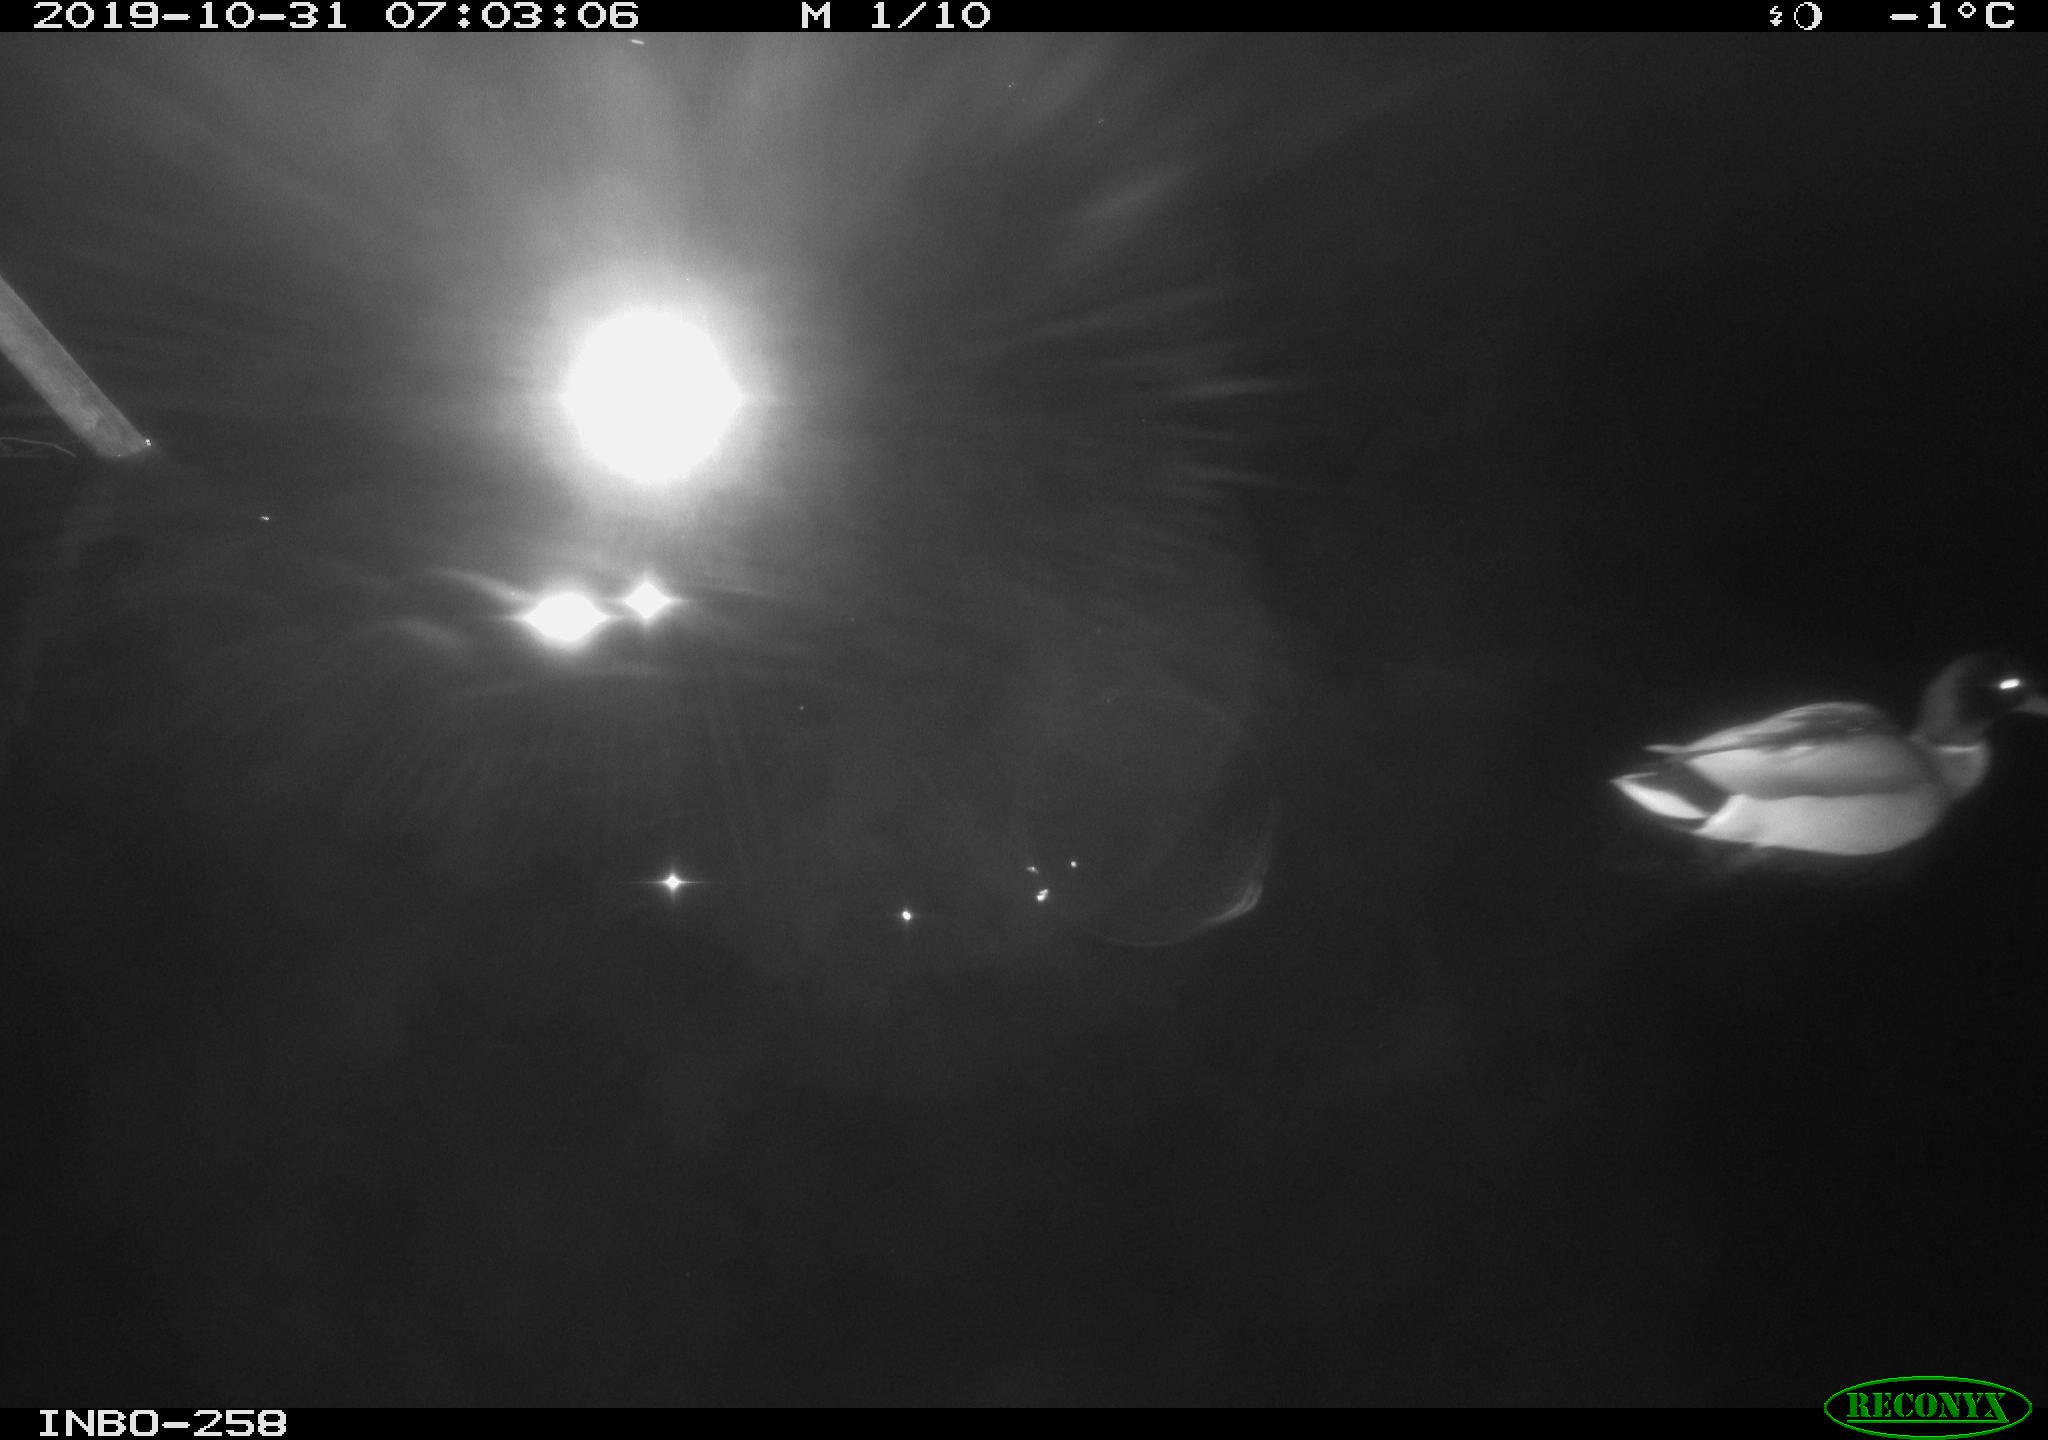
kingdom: Animalia
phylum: Chordata
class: Aves
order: Anseriformes
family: Anatidae
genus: Anas
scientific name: Anas platyrhynchos
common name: Mallard
